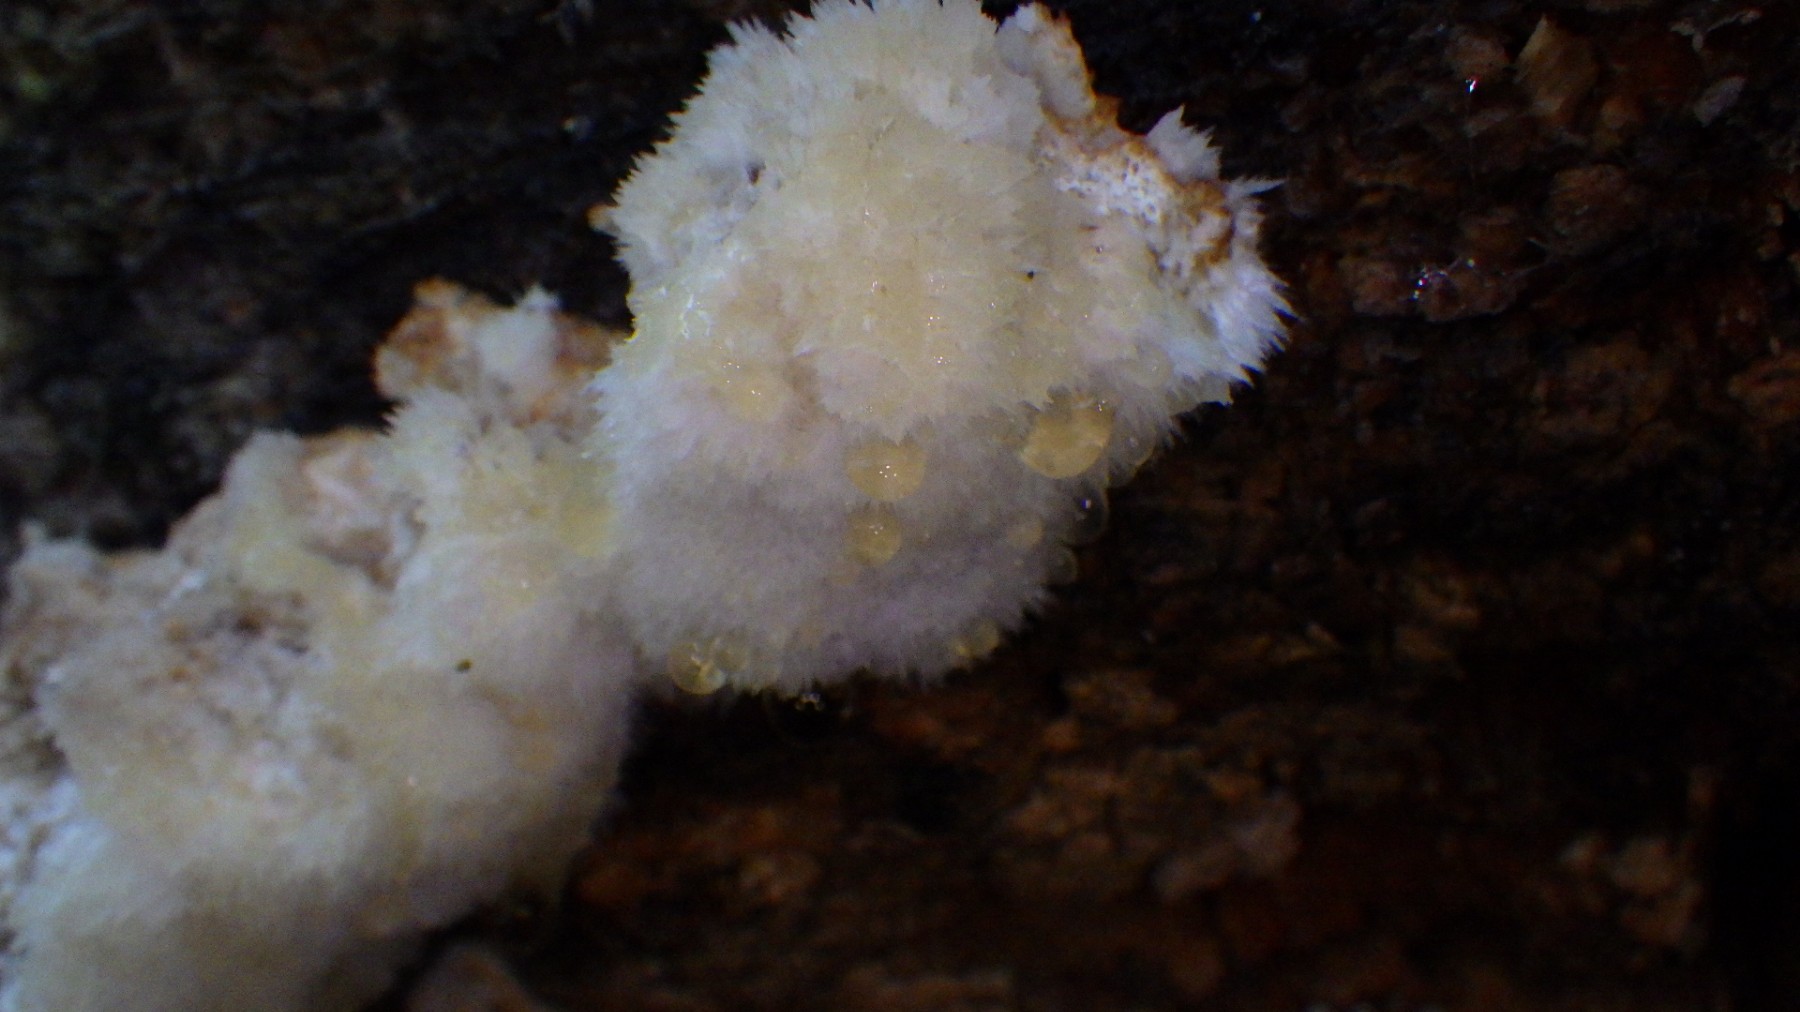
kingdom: Fungi
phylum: Basidiomycota
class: Agaricomycetes
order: Polyporales
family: Dacryobolaceae
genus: Postia
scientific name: Postia ptychogaster
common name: støvende kødporesvamp
